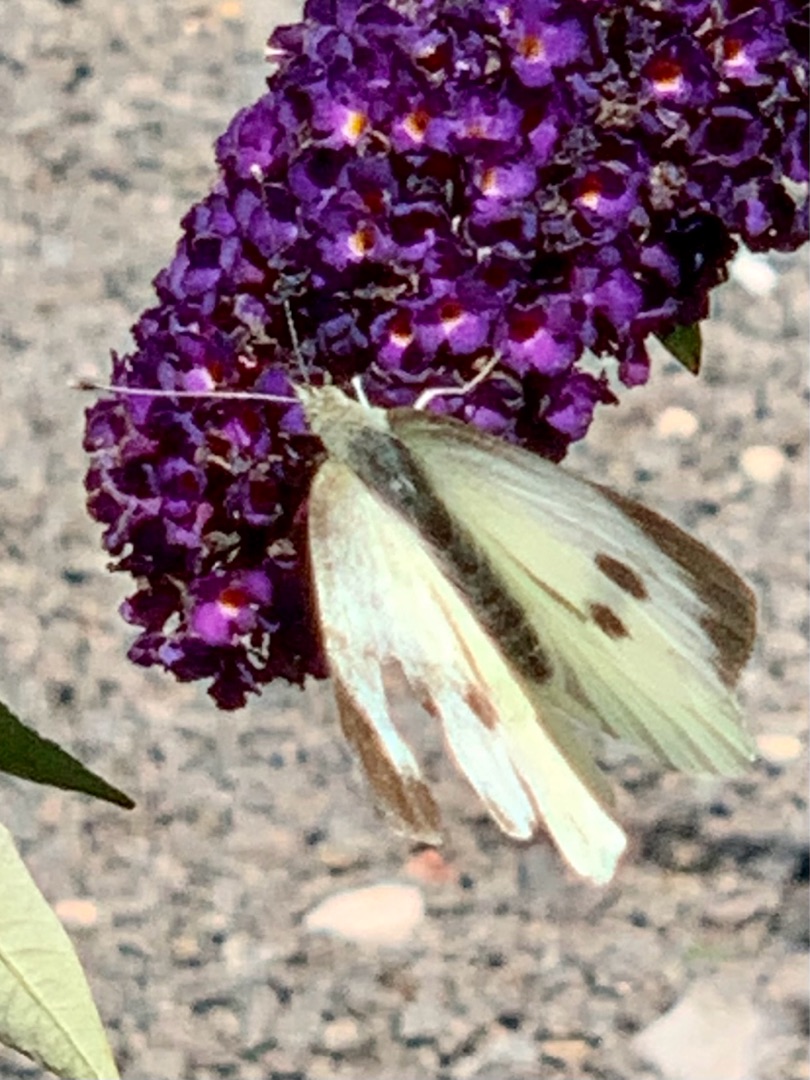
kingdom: Animalia
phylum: Arthropoda
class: Insecta
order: Lepidoptera
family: Pieridae
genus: Pieris
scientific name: Pieris brassicae
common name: Stor kålsommerfugl
